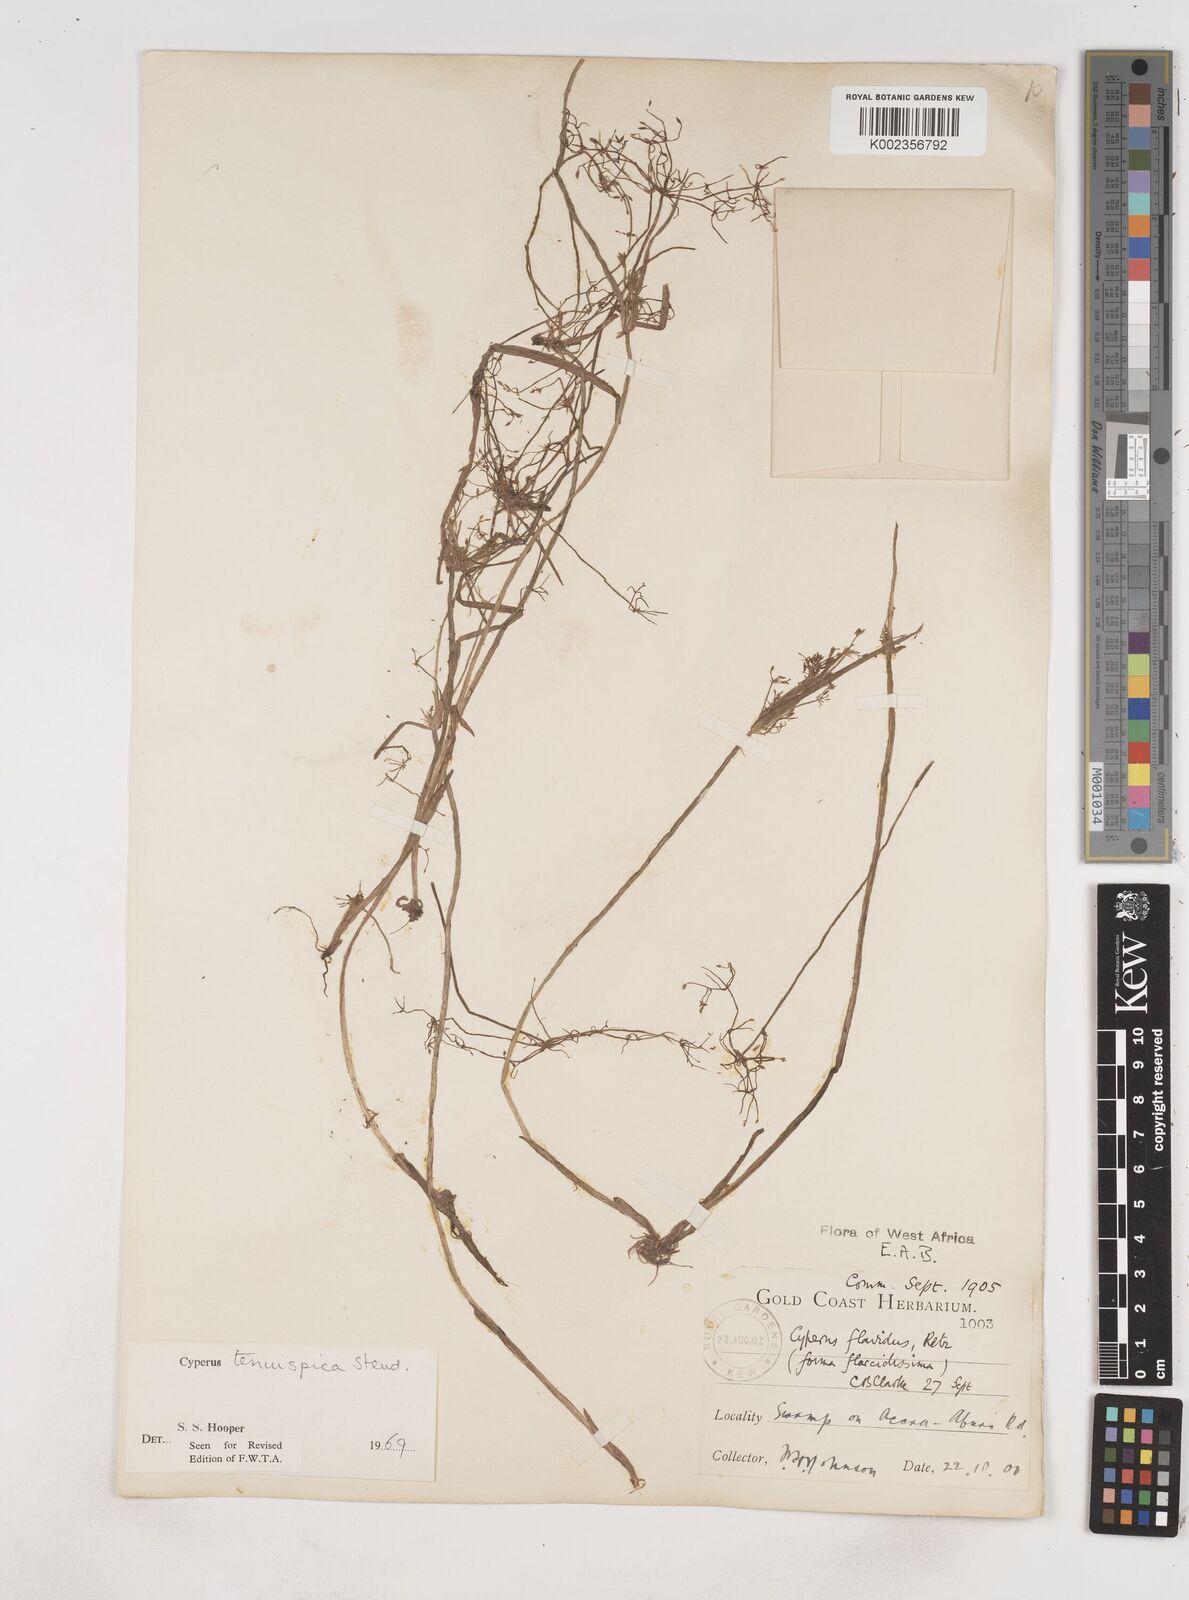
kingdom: Plantae
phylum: Tracheophyta
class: Liliopsida
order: Poales
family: Cyperaceae
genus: Cyperus
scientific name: Cyperus tenuispica
